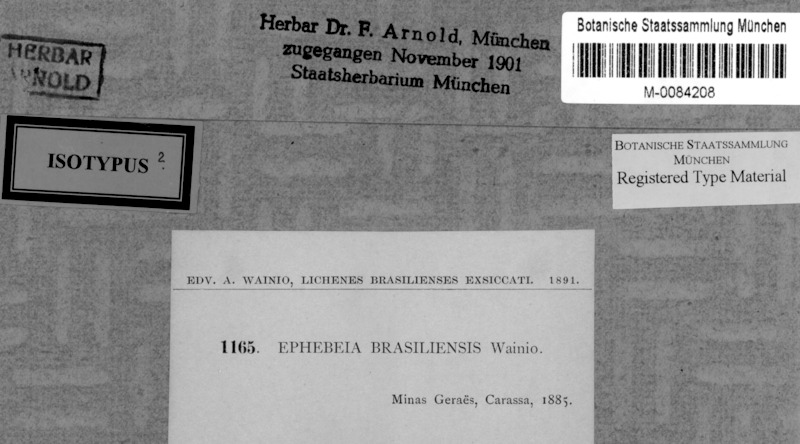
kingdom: Fungi
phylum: Ascomycota
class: Lichinomycetes
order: Lichinales
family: Lichinaceae
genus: Ephebe
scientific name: Ephebe
